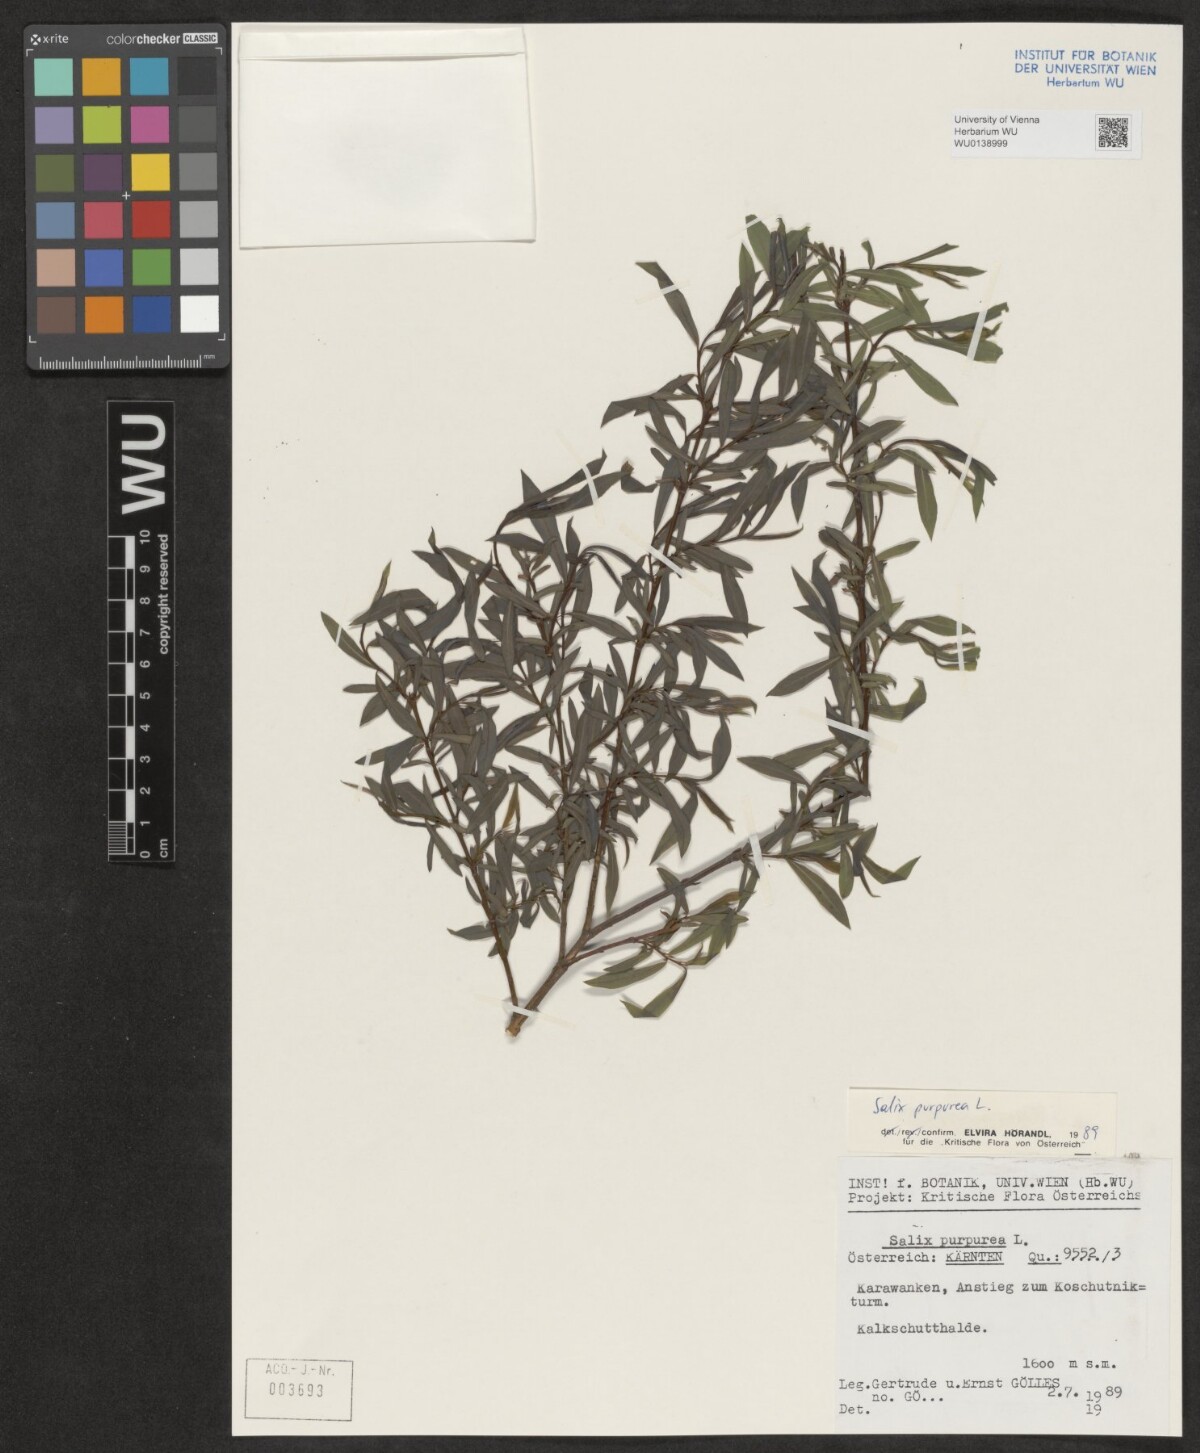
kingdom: Plantae
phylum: Tracheophyta
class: Magnoliopsida
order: Malpighiales
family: Salicaceae
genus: Salix
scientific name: Salix purpurea
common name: Purple willow
